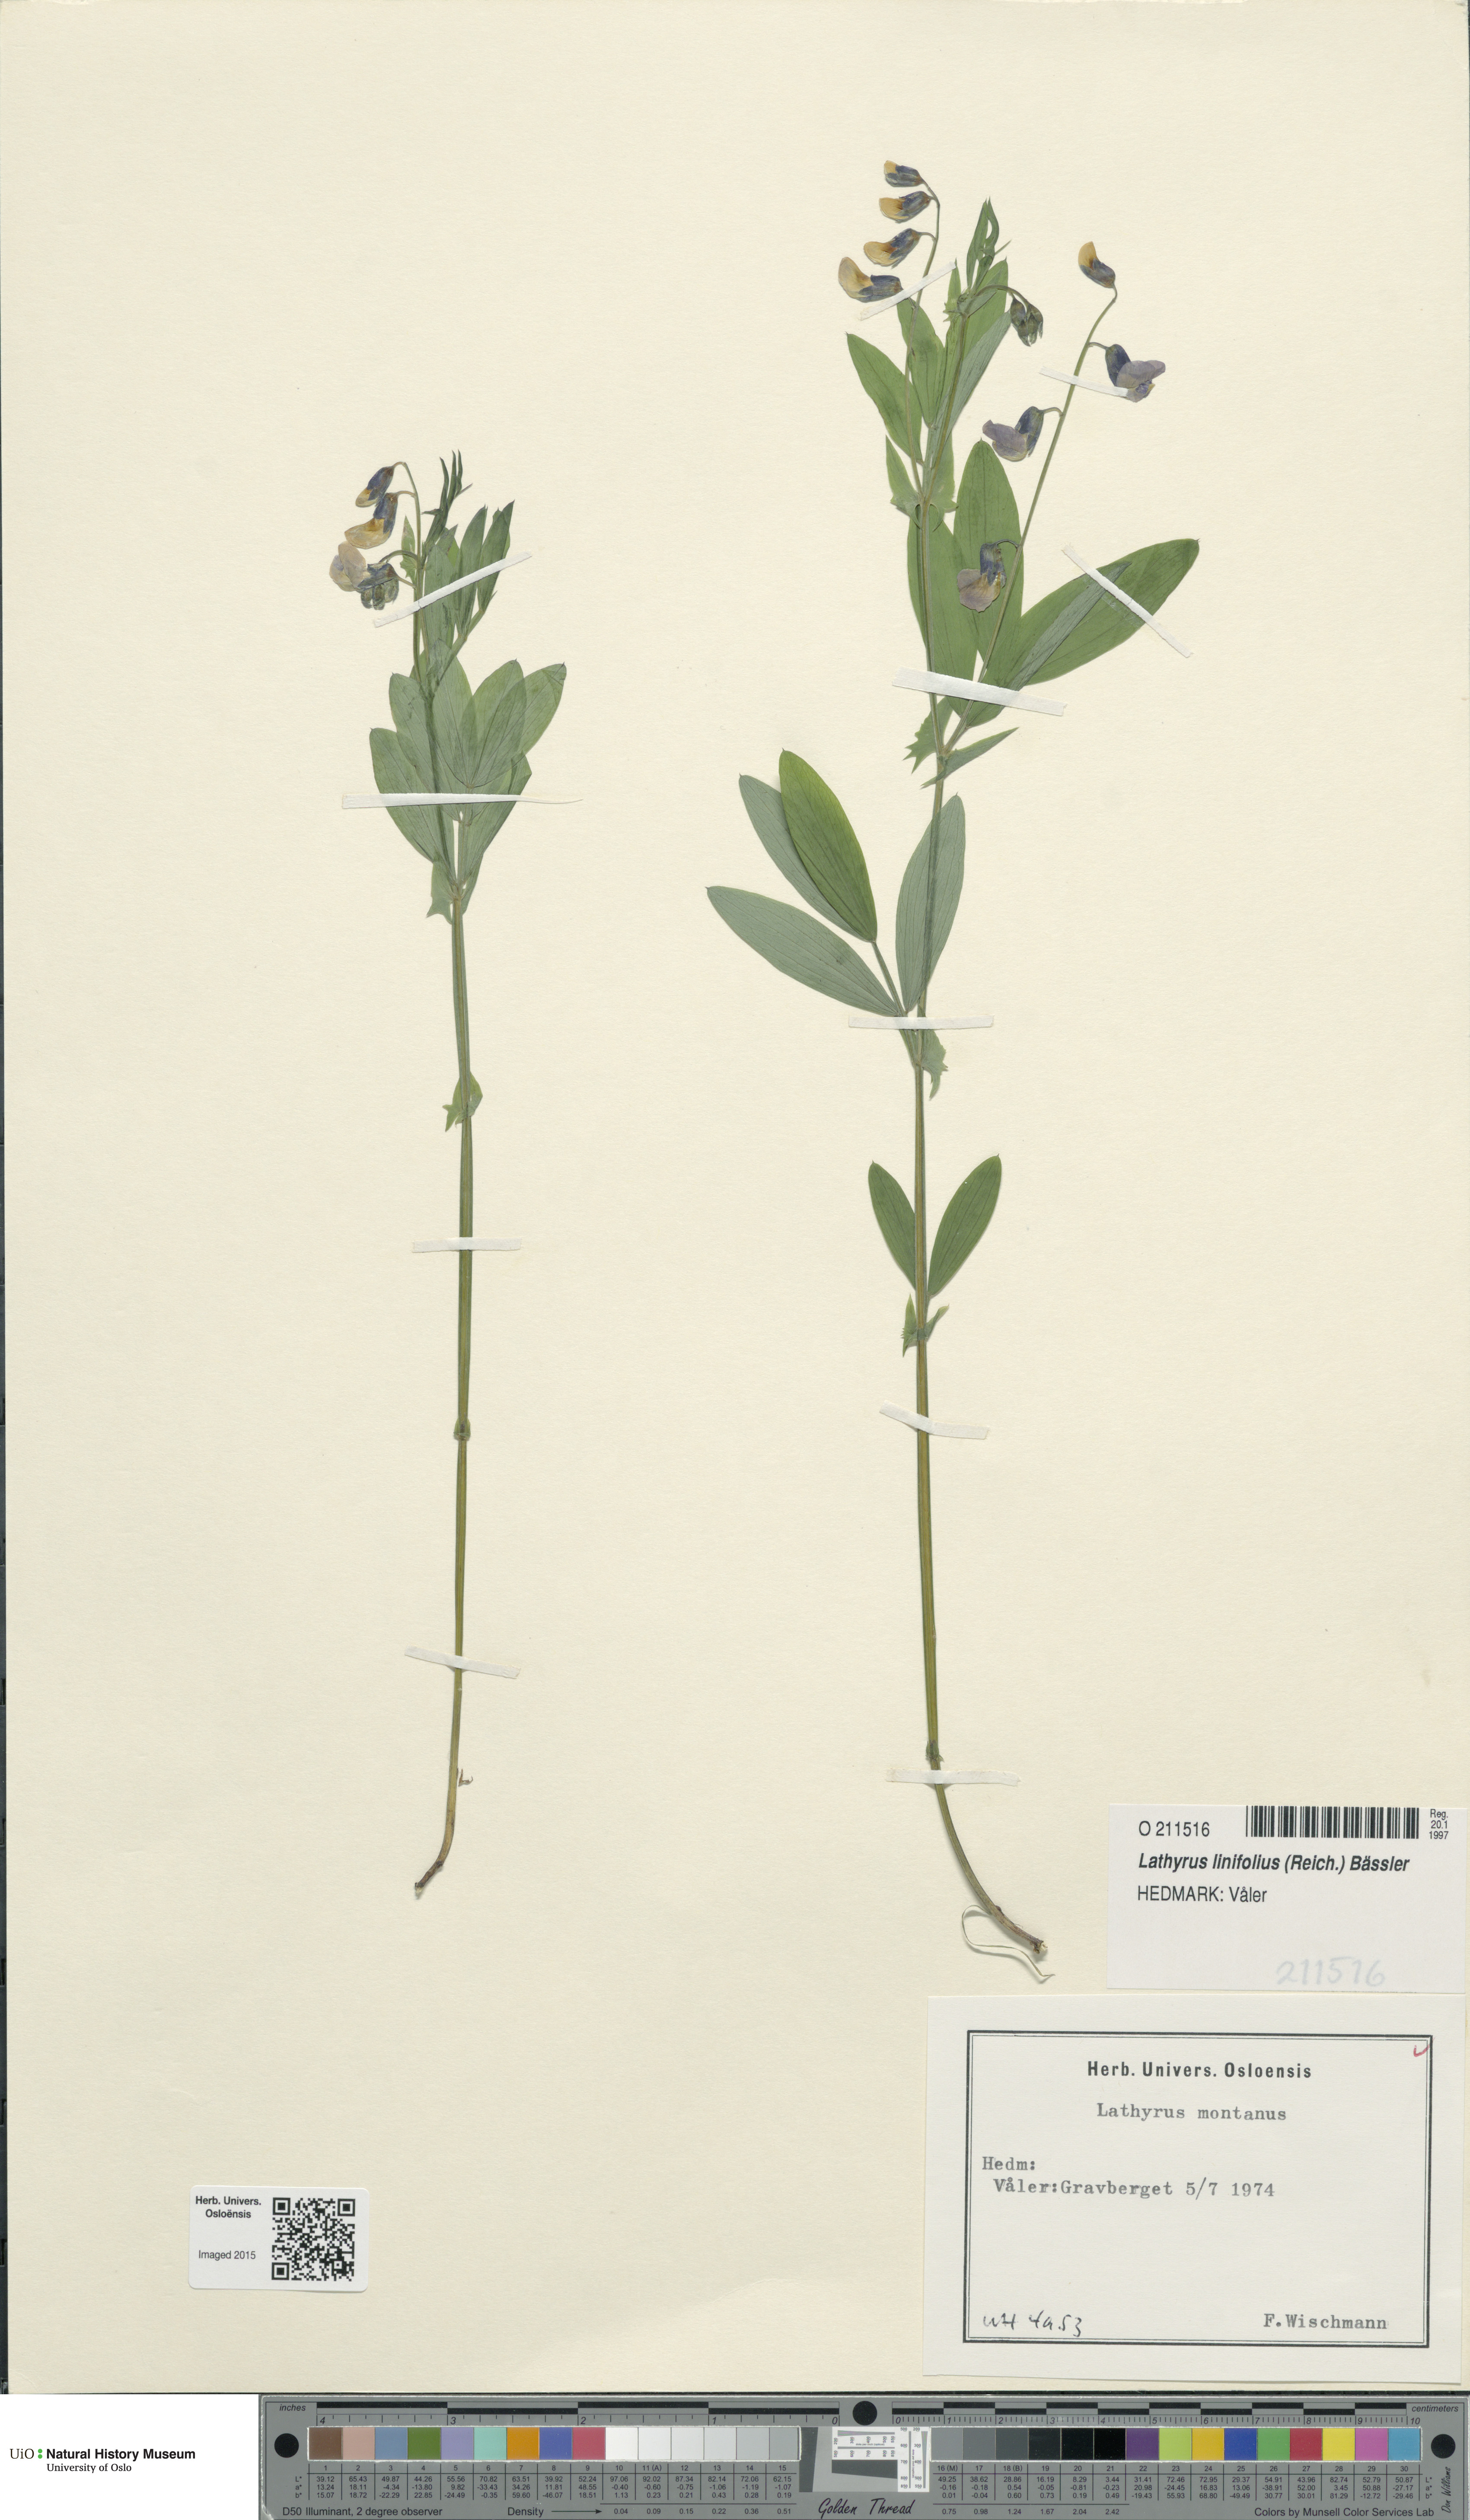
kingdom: Plantae
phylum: Tracheophyta
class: Magnoliopsida
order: Fabales
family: Fabaceae
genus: Lathyrus
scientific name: Lathyrus linifolius
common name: Bitter-vetch
